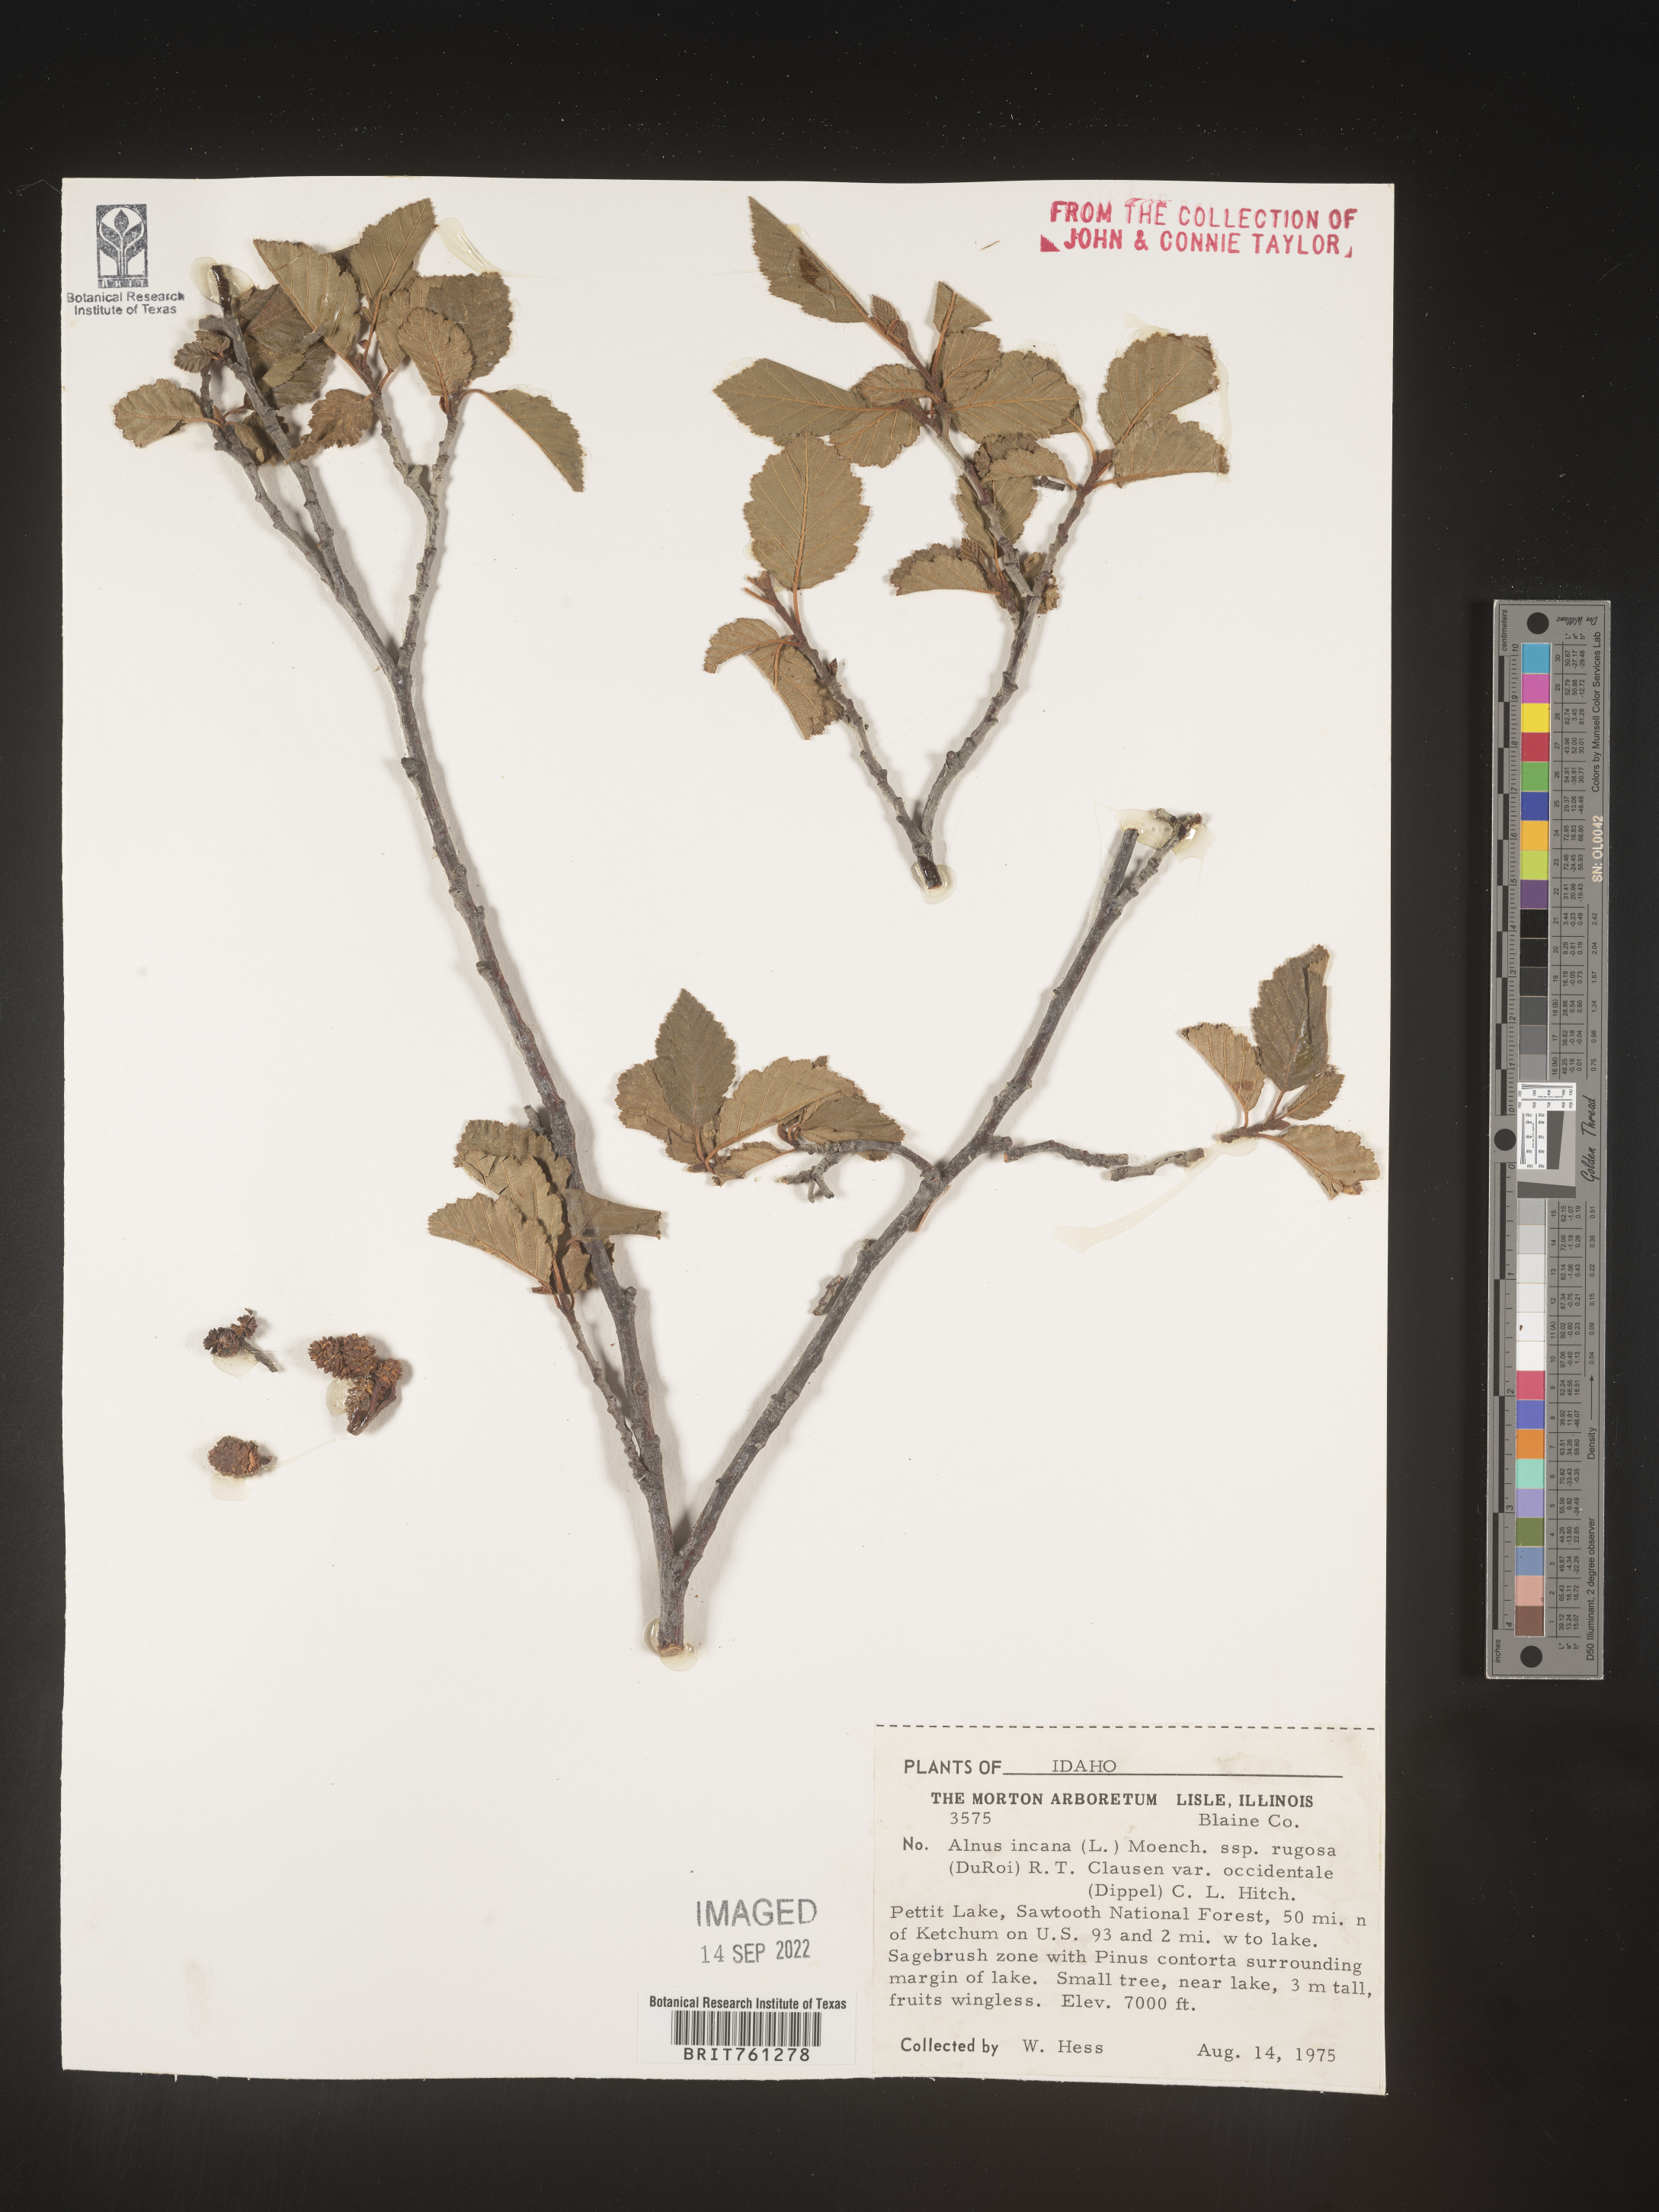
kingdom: Plantae
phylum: Tracheophyta
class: Magnoliopsida
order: Fagales
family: Betulaceae
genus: Alnus
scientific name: Alnus incana
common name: Grey alder
